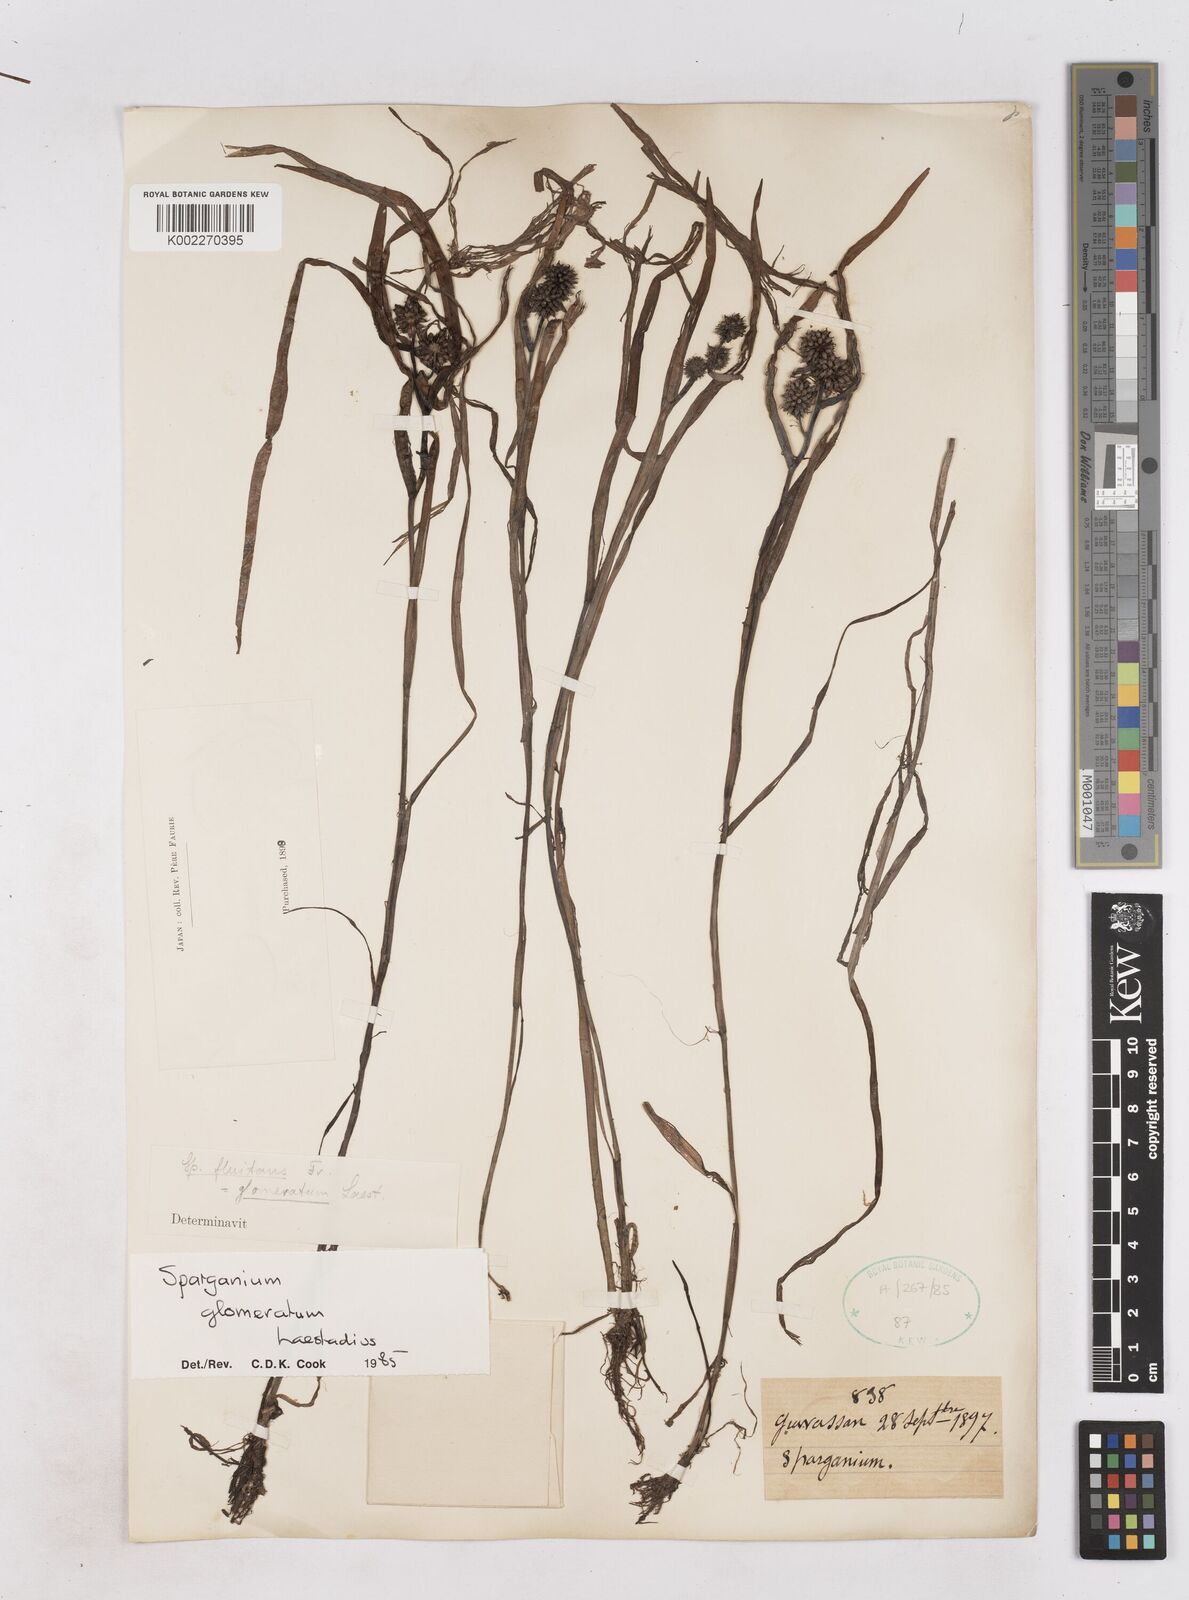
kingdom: Plantae
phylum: Tracheophyta
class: Liliopsida
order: Poales
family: Typhaceae
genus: Sparganium
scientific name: Sparganium glomeratum
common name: Clustered burreed
